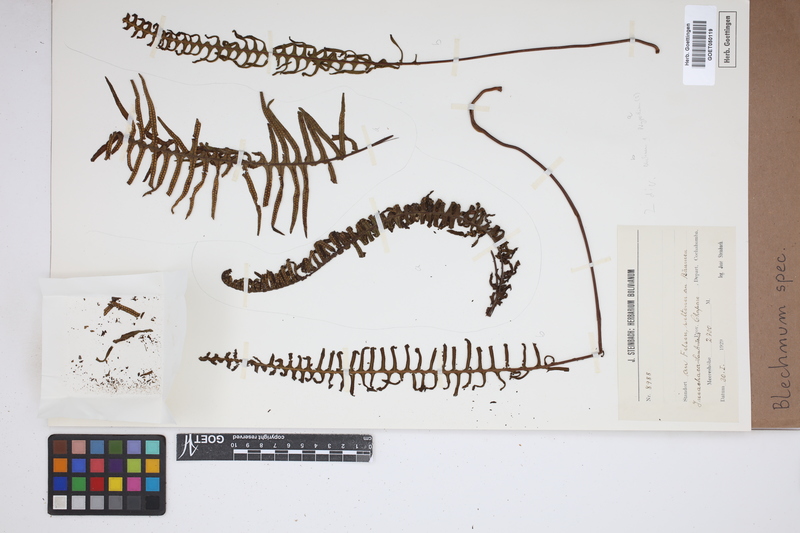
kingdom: Plantae
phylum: Tracheophyta
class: Polypodiopsida
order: Polypodiales
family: Blechnaceae
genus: Blechnum
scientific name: Blechnum
